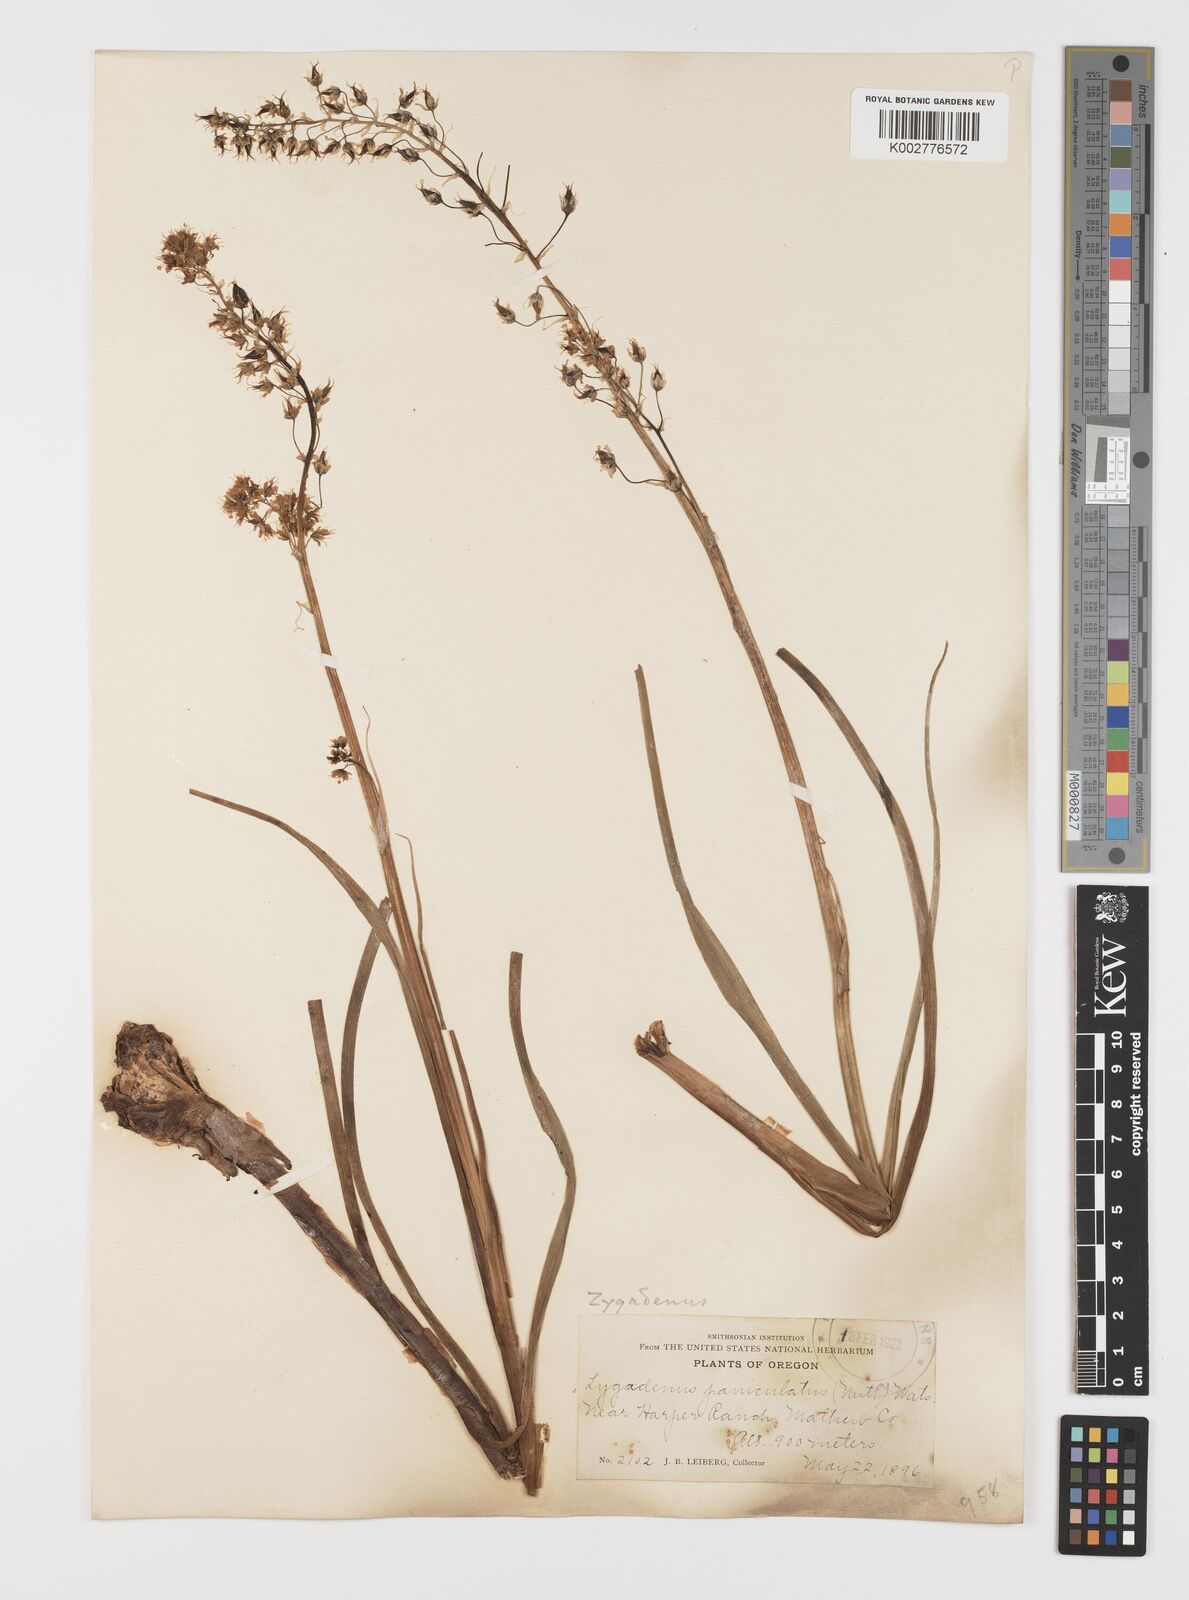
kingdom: Plantae
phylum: Tracheophyta
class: Liliopsida
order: Liliales
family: Melanthiaceae
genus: Toxicoscordion
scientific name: Toxicoscordion paniculatum
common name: Foothill death camas
